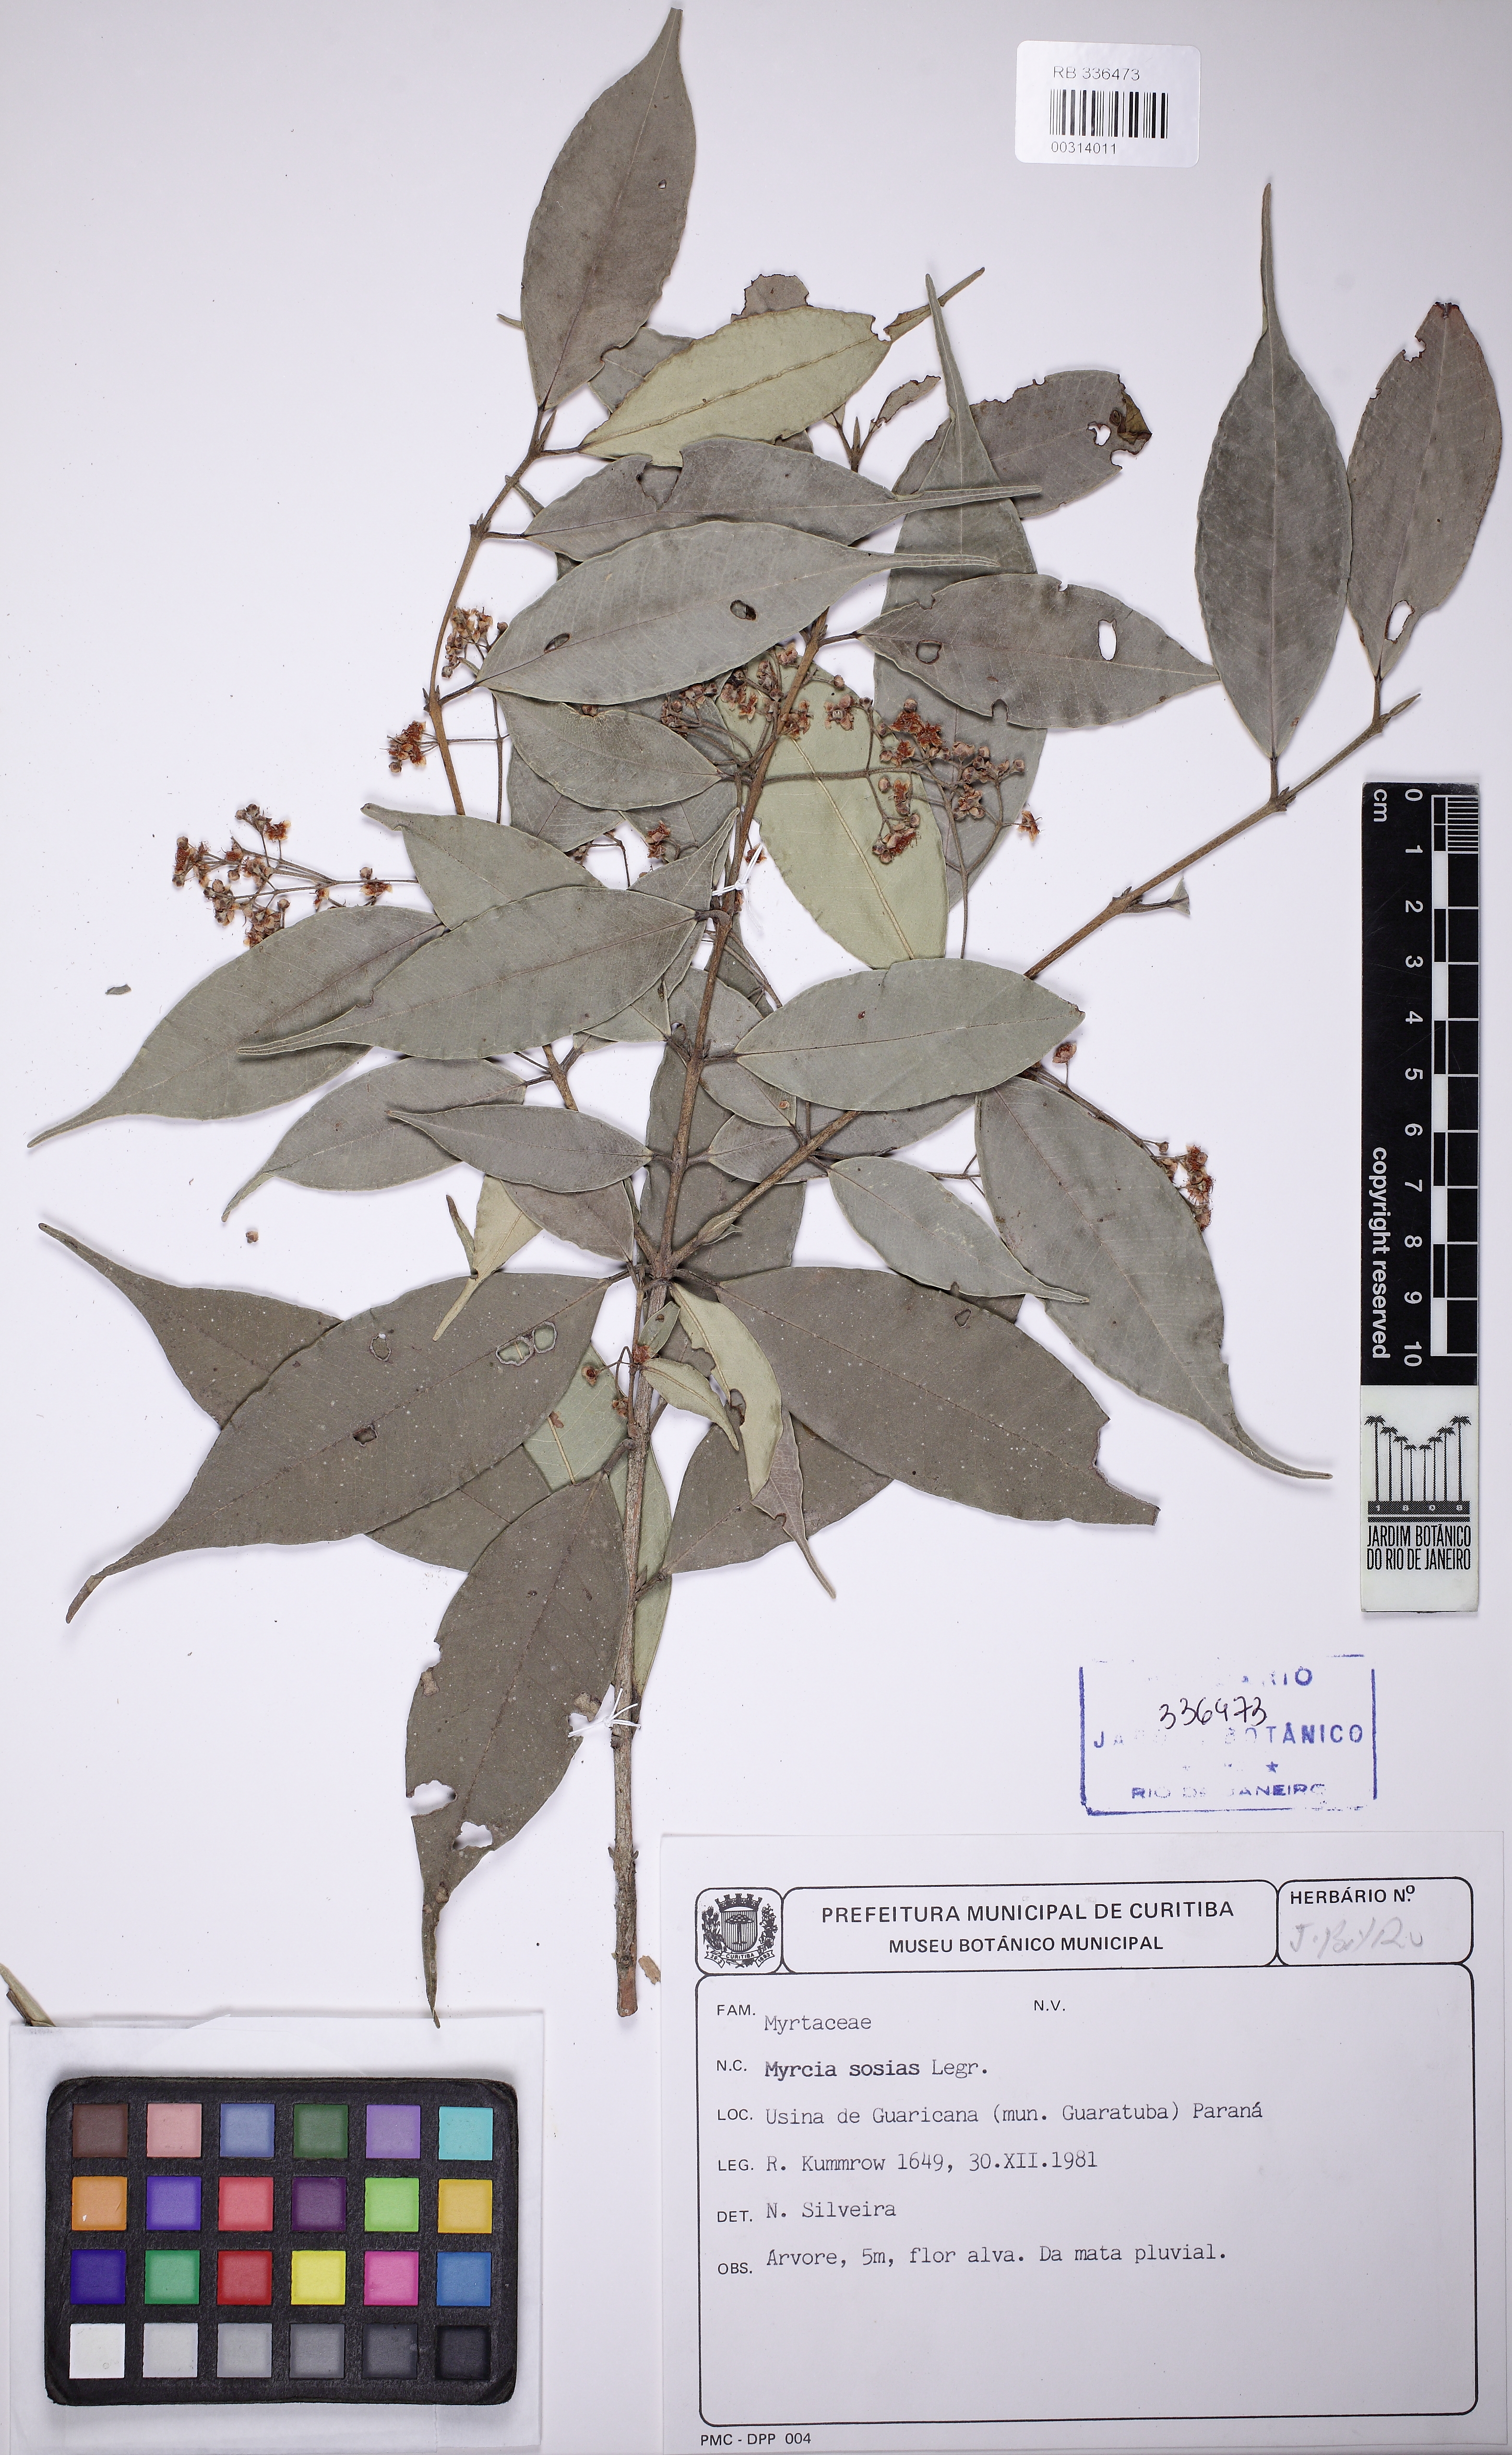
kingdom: Plantae
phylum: Tracheophyta
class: Magnoliopsida
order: Myrtales
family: Myrtaceae
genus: Myrcia
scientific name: Myrcia undulata
